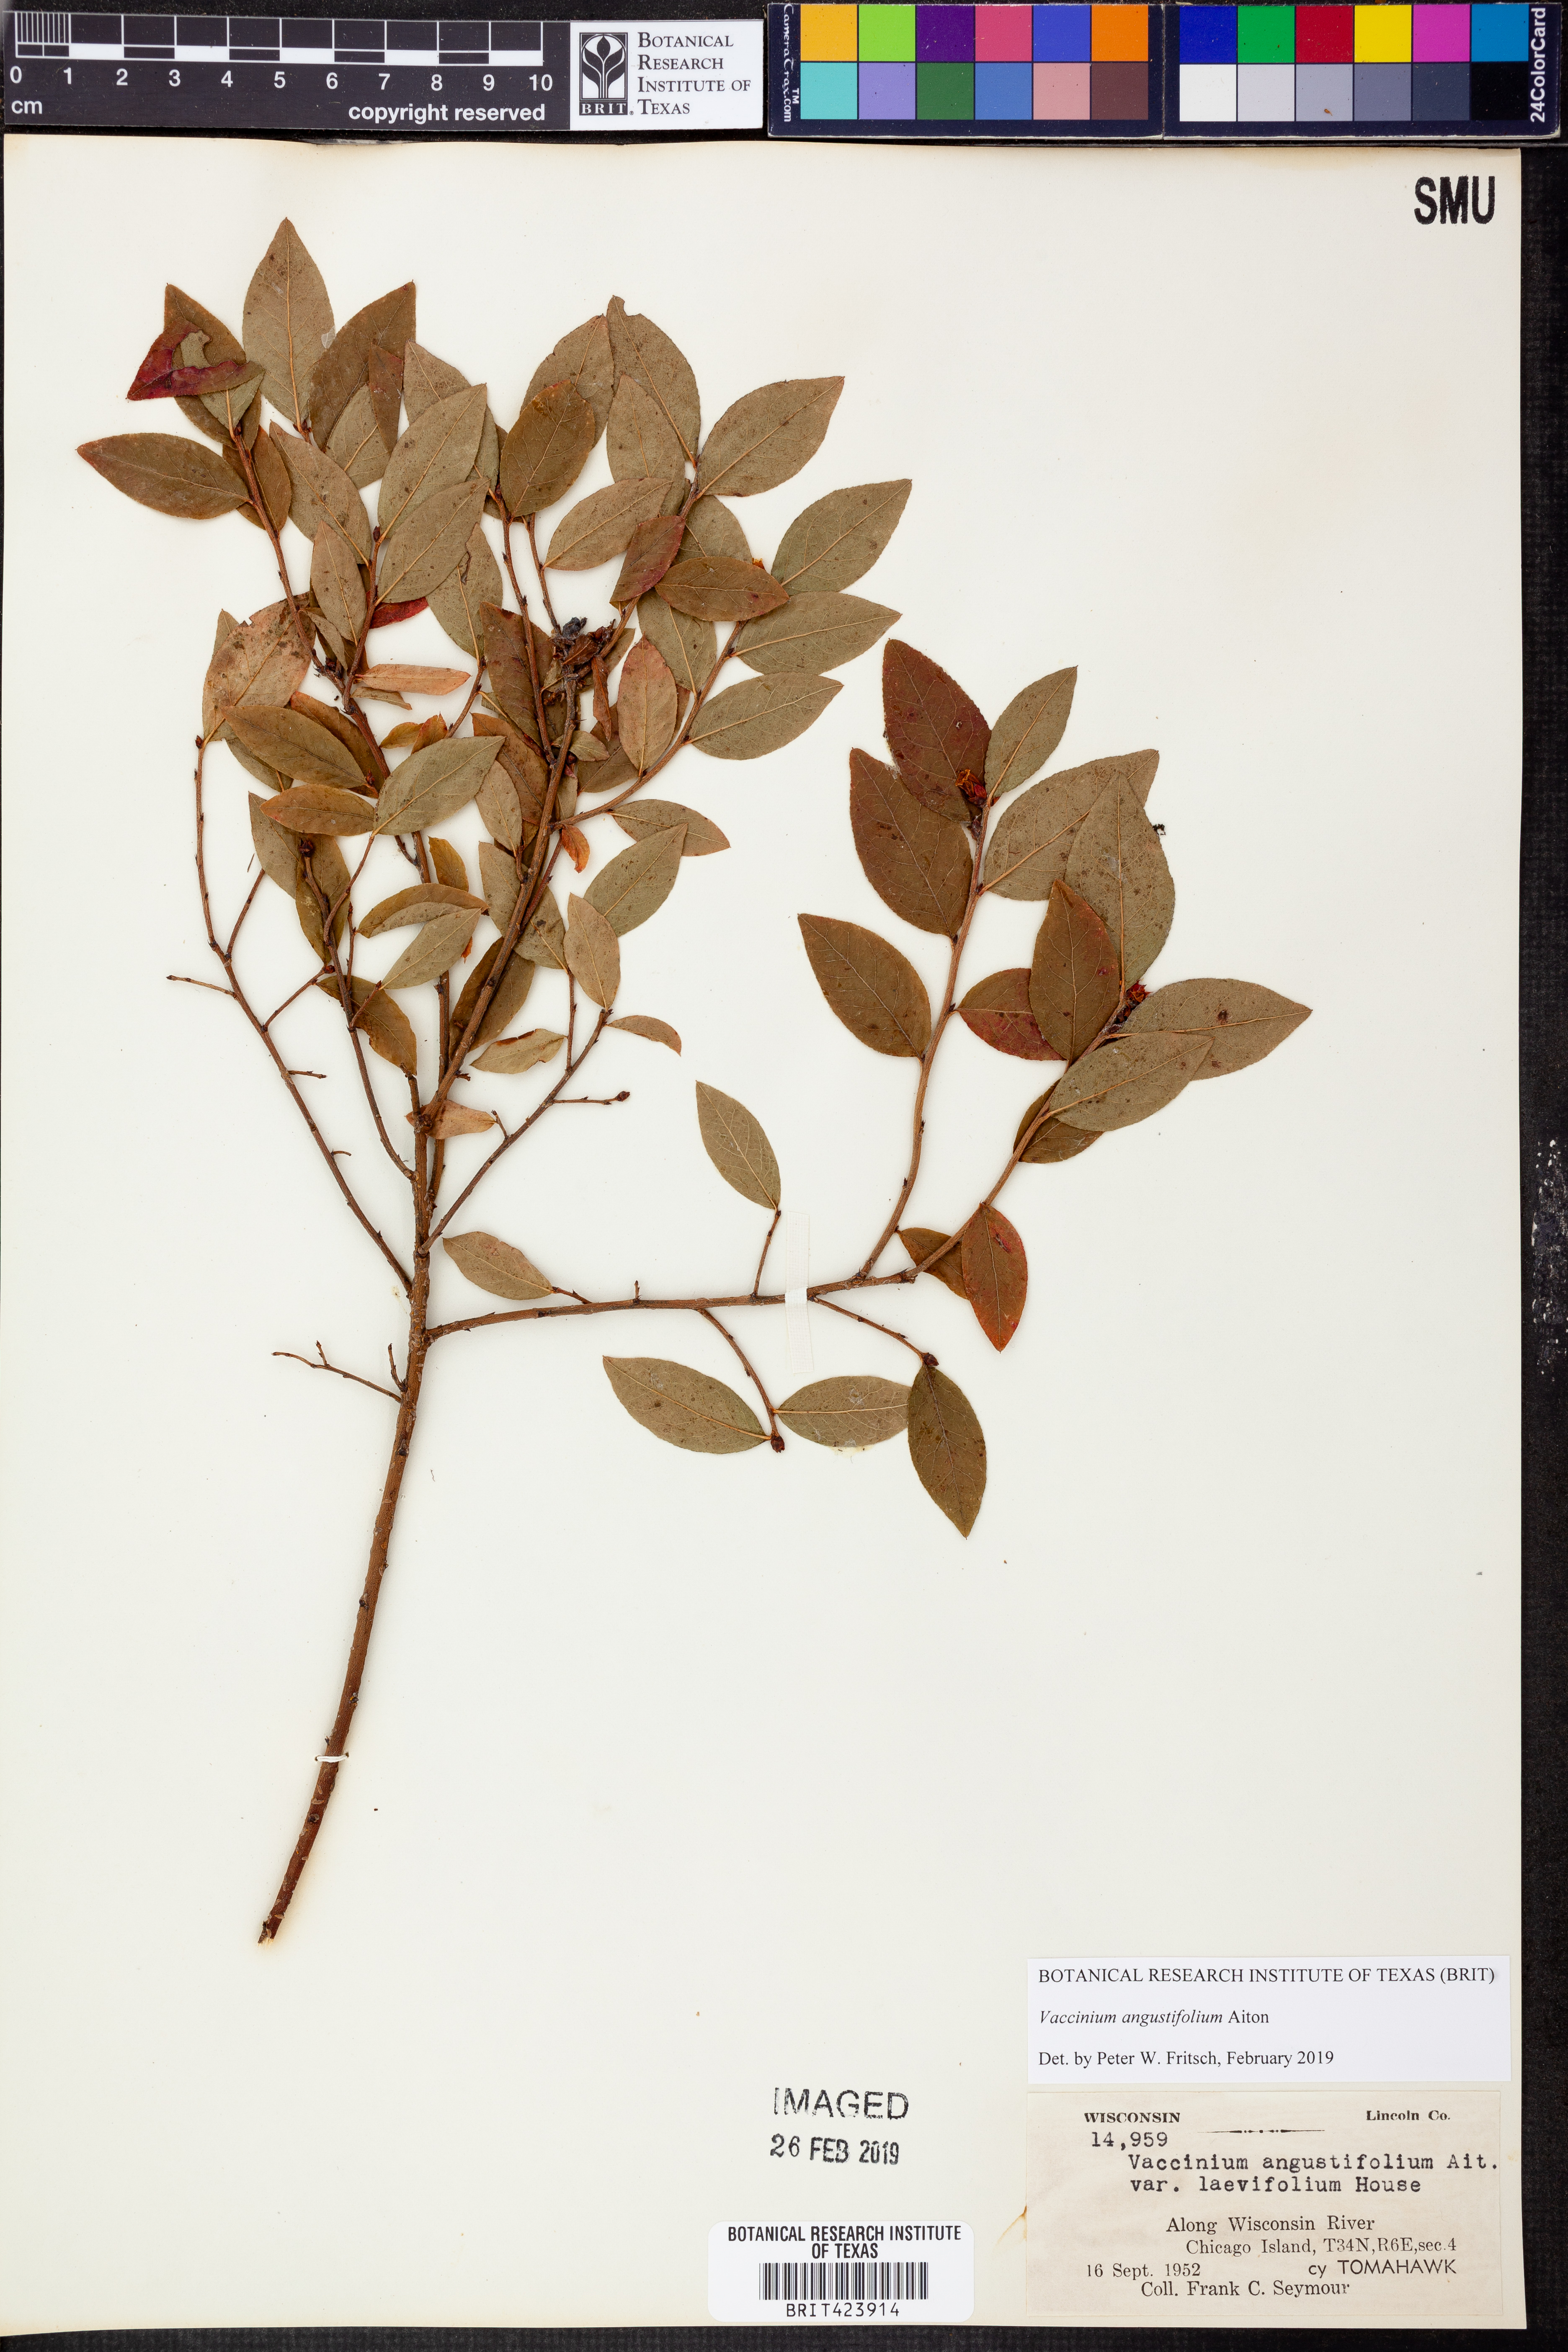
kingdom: Plantae
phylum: Tracheophyta
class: Magnoliopsida
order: Ericales
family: Ericaceae
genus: Vaccinium
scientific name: Vaccinium angustifolium
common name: Early lowbush blueberry
